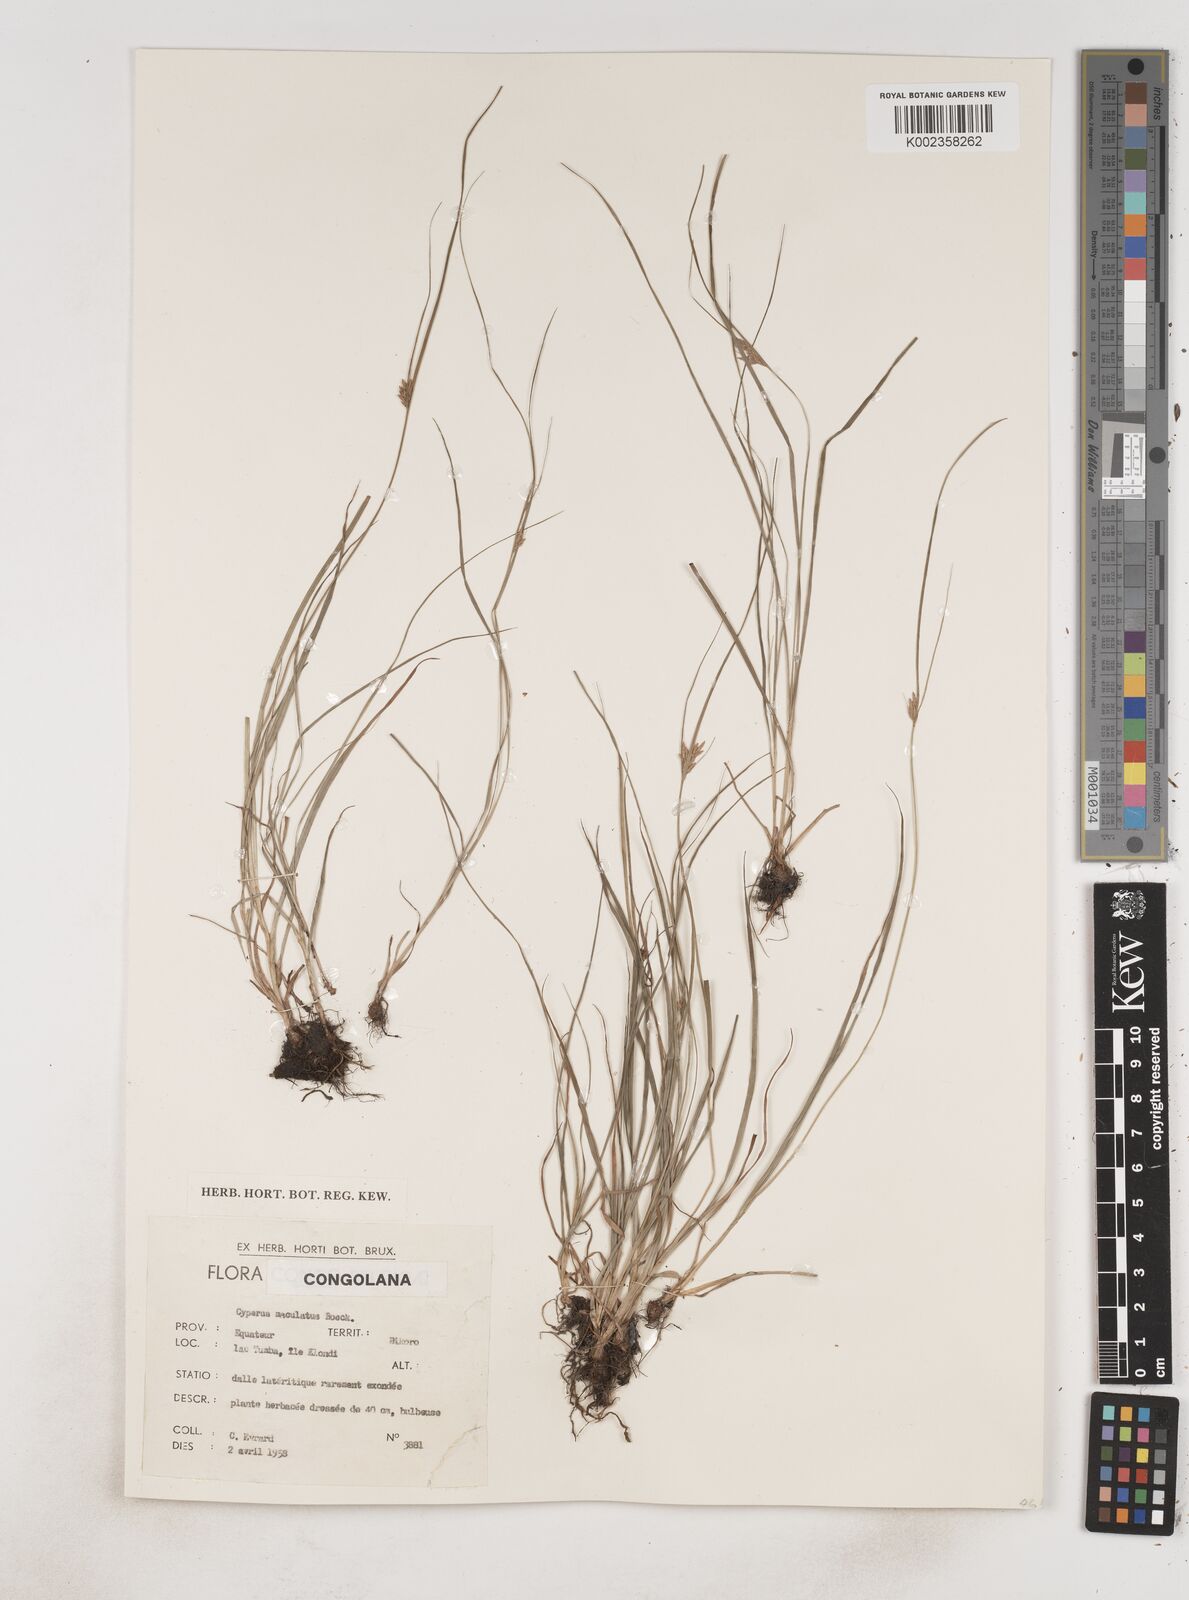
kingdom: Plantae
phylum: Tracheophyta
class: Liliopsida
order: Poales
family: Cyperaceae
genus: Cyperus
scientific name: Cyperus maculatus
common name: Maculated sedge
